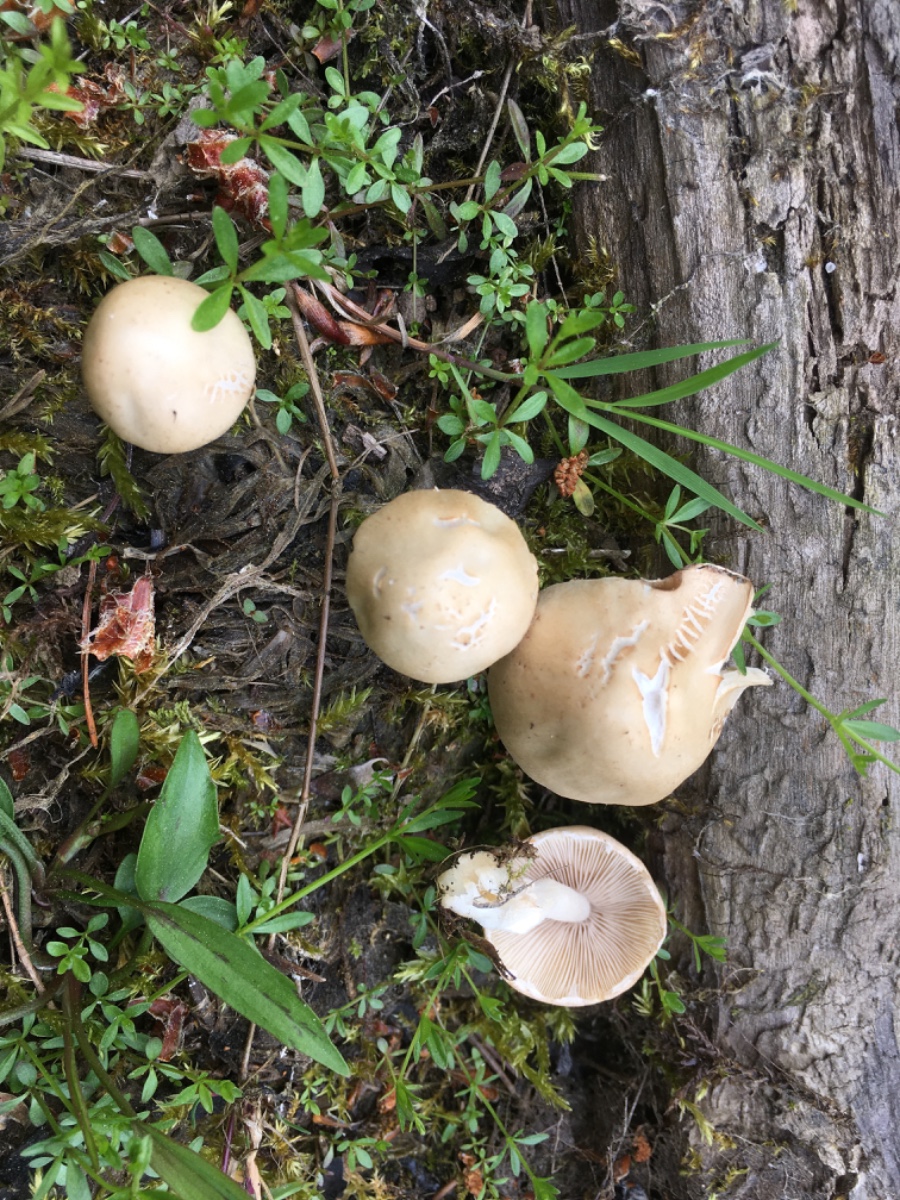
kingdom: Fungi
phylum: Basidiomycota
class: Agaricomycetes
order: Agaricales
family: Psathyrellaceae
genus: Candolleomyces
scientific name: Candolleomyces candolleanus
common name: Candolles mørkhat
